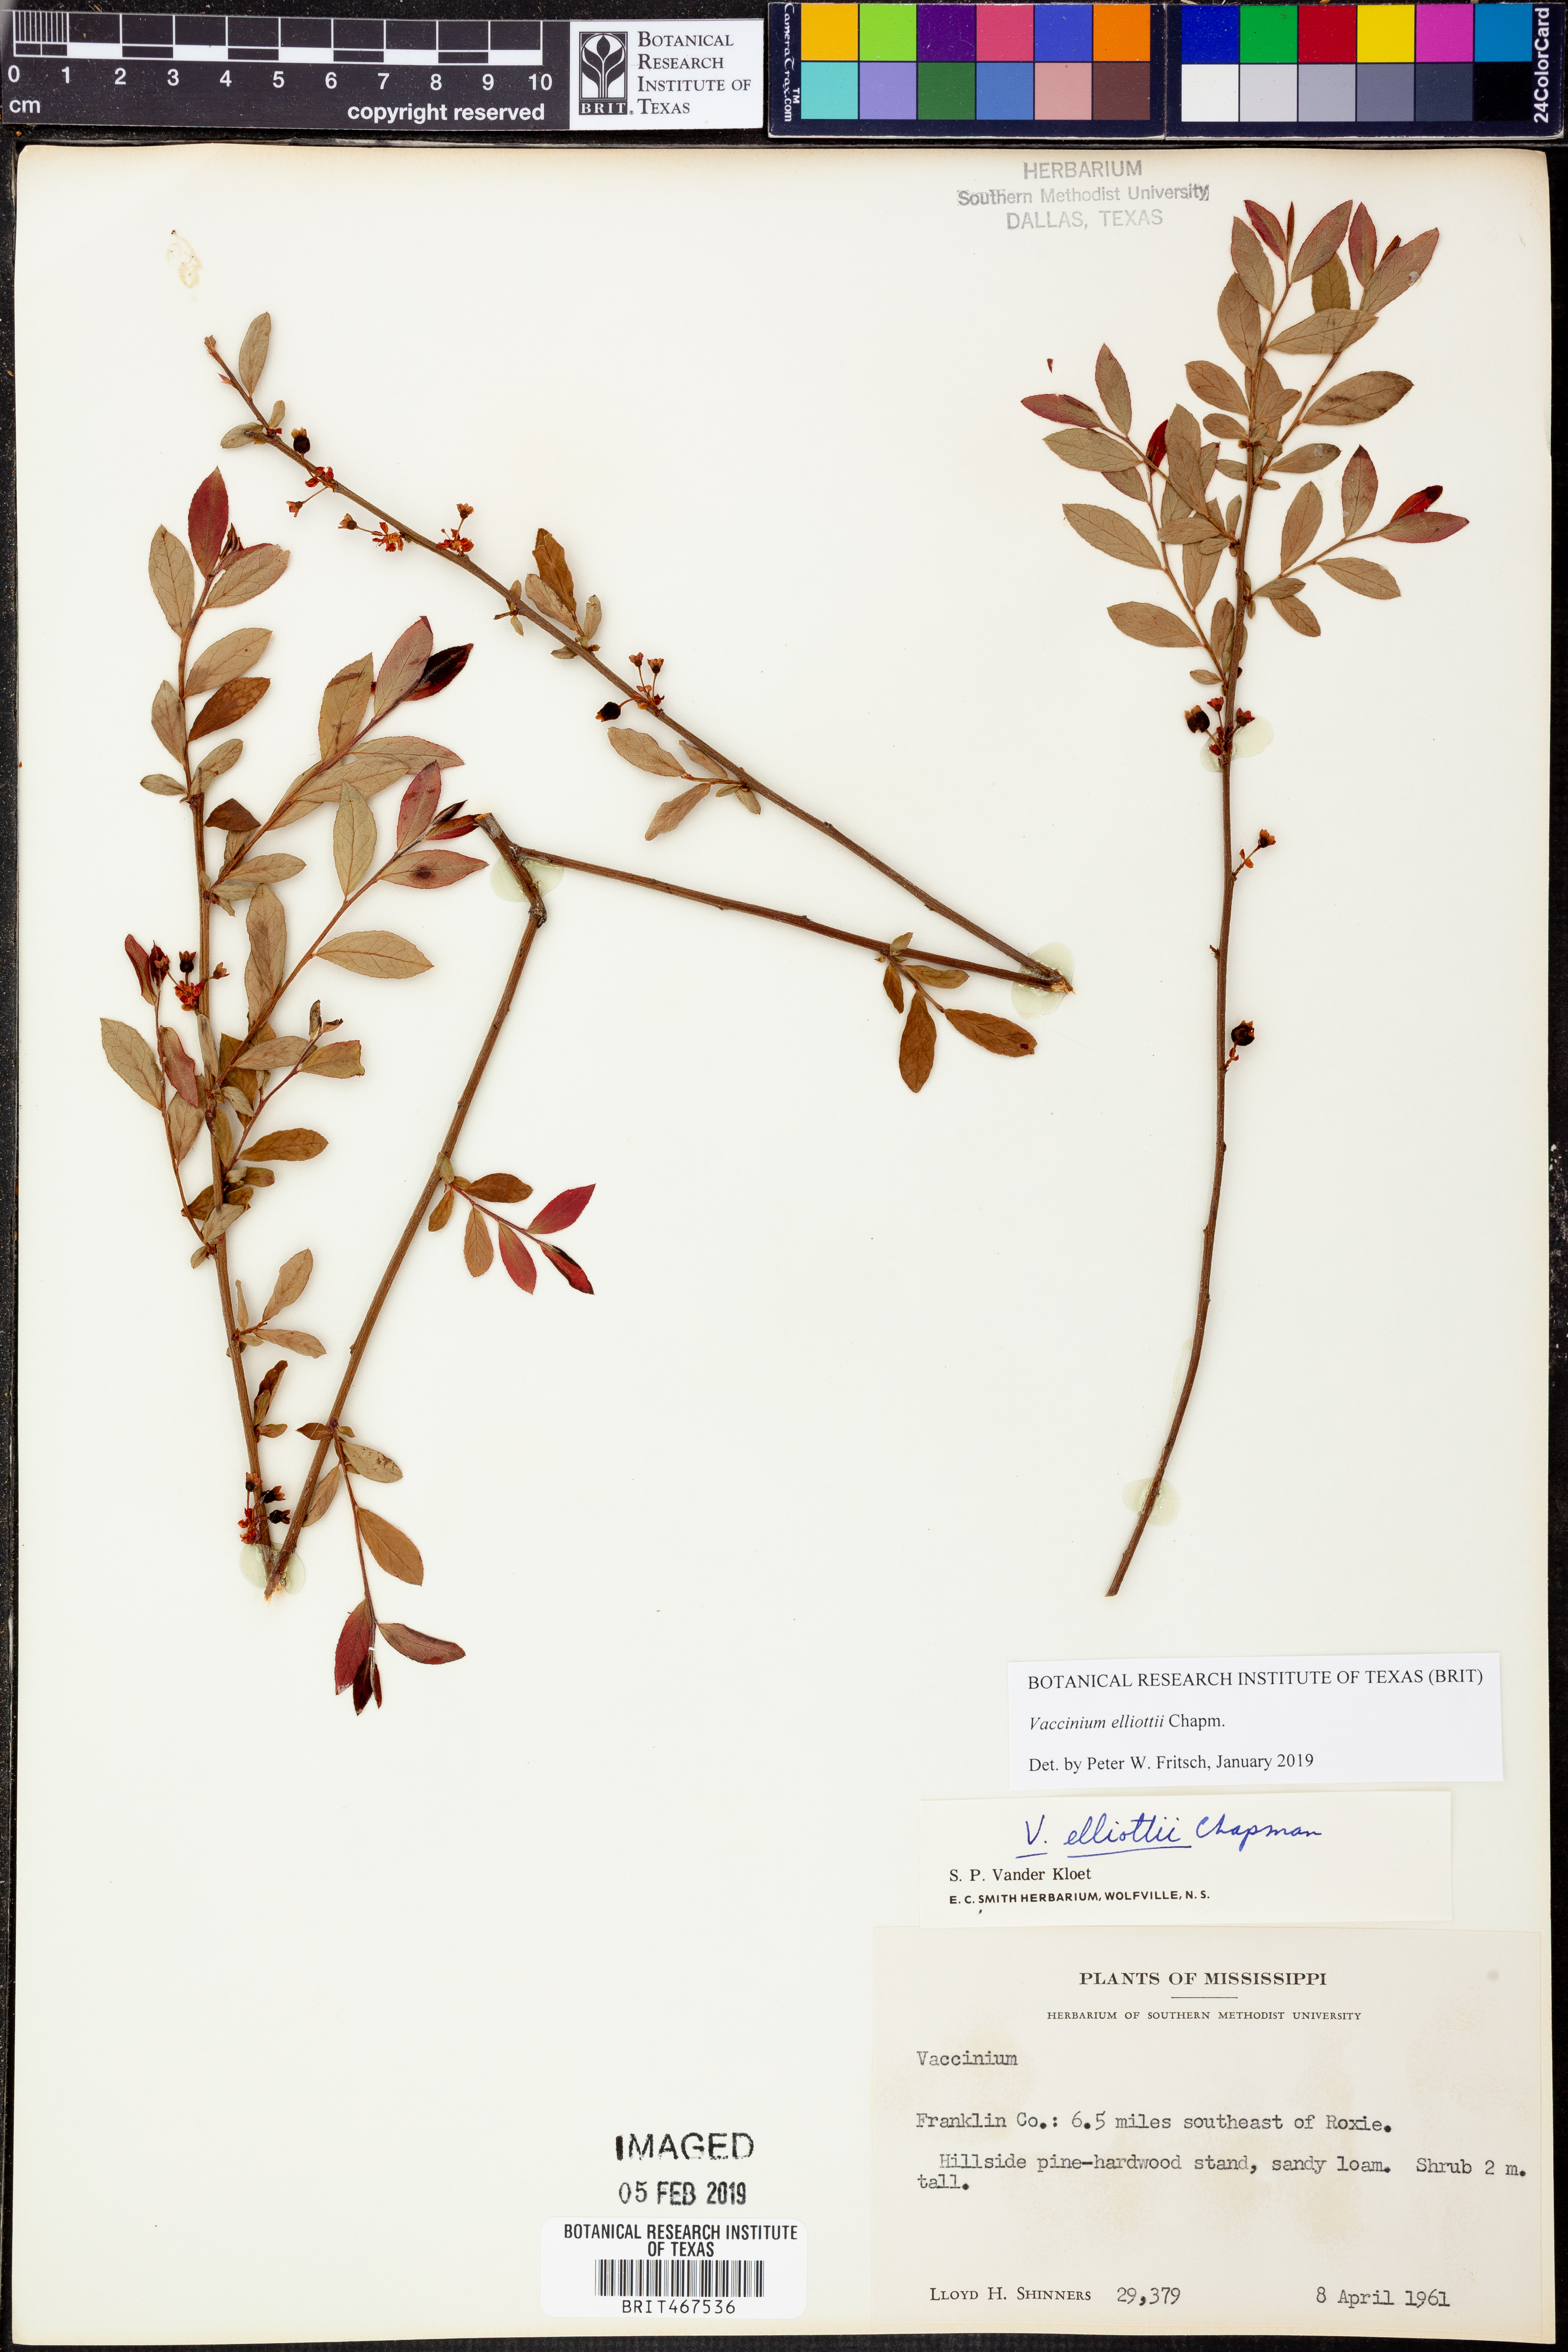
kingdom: Plantae
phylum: Tracheophyta
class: Magnoliopsida
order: Ericales
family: Ericaceae
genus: Vaccinium
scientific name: Vaccinium corymbosum
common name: Blueberry
